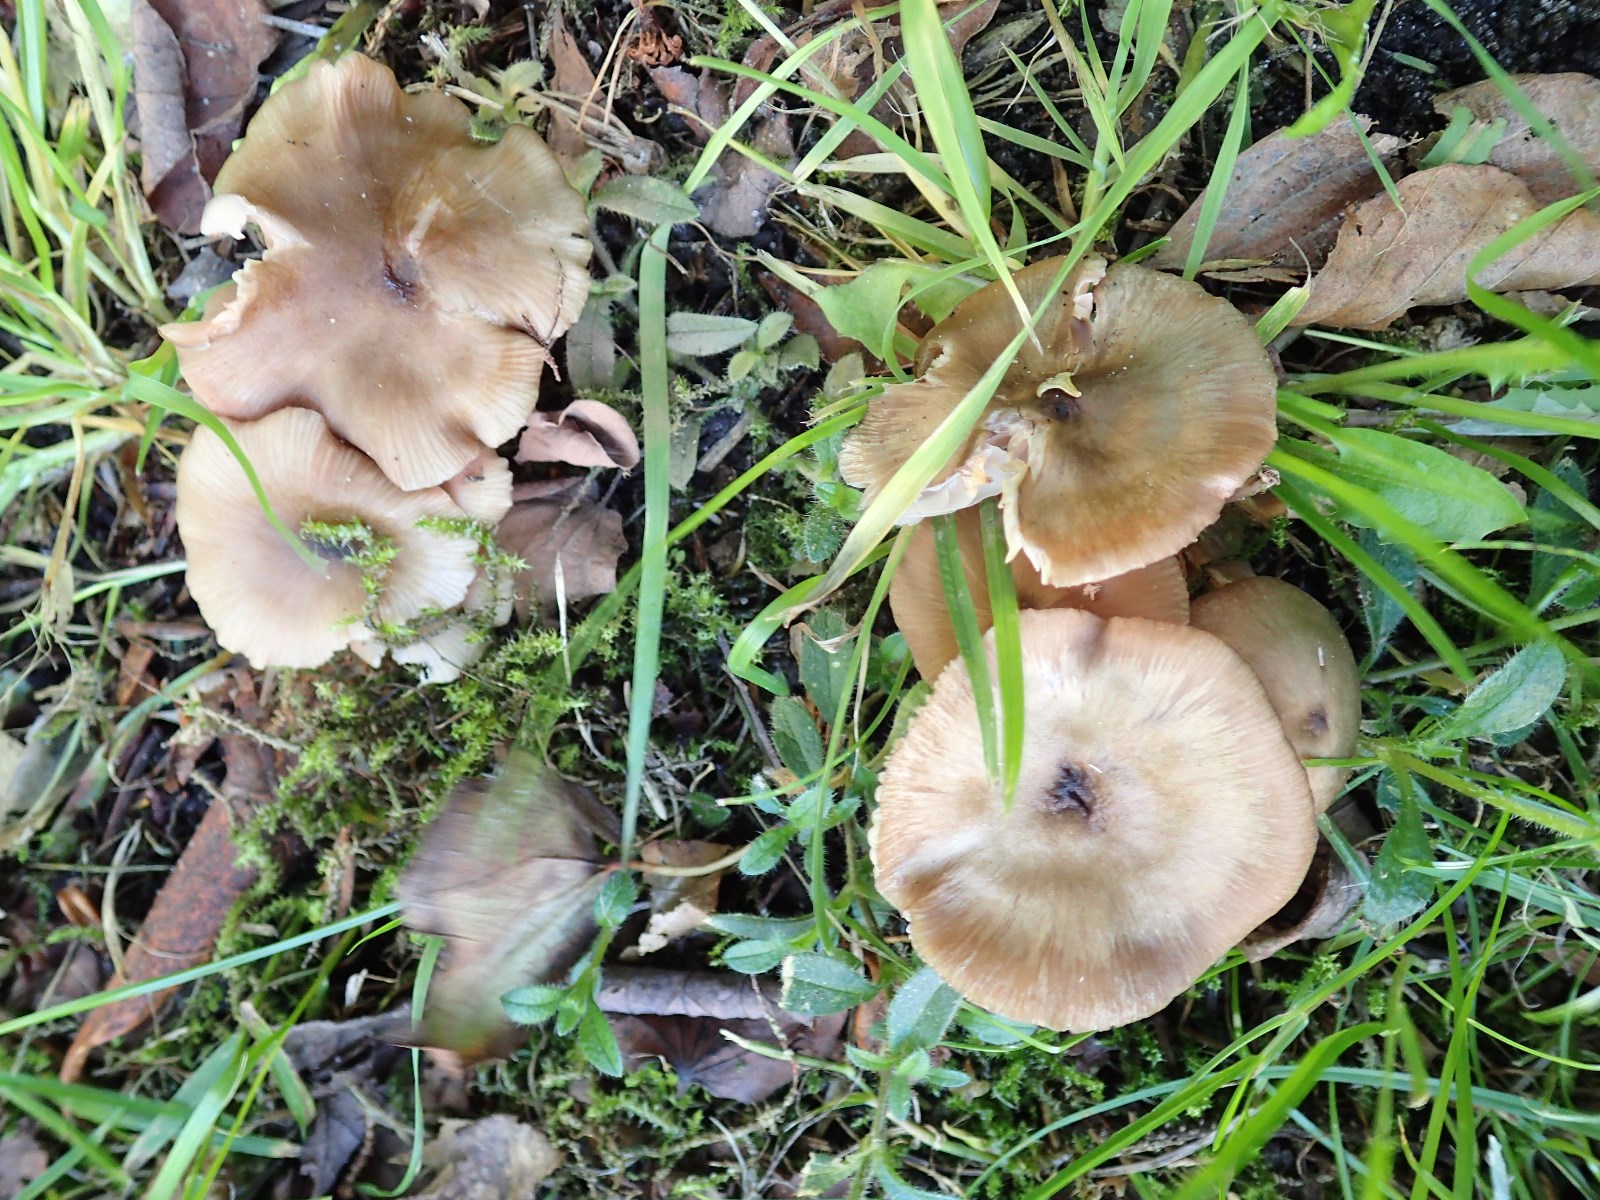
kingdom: Fungi
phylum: Basidiomycota
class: Agaricomycetes
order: Agaricales
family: Entolomataceae
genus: Entoloma
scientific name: Entoloma subradiatum
